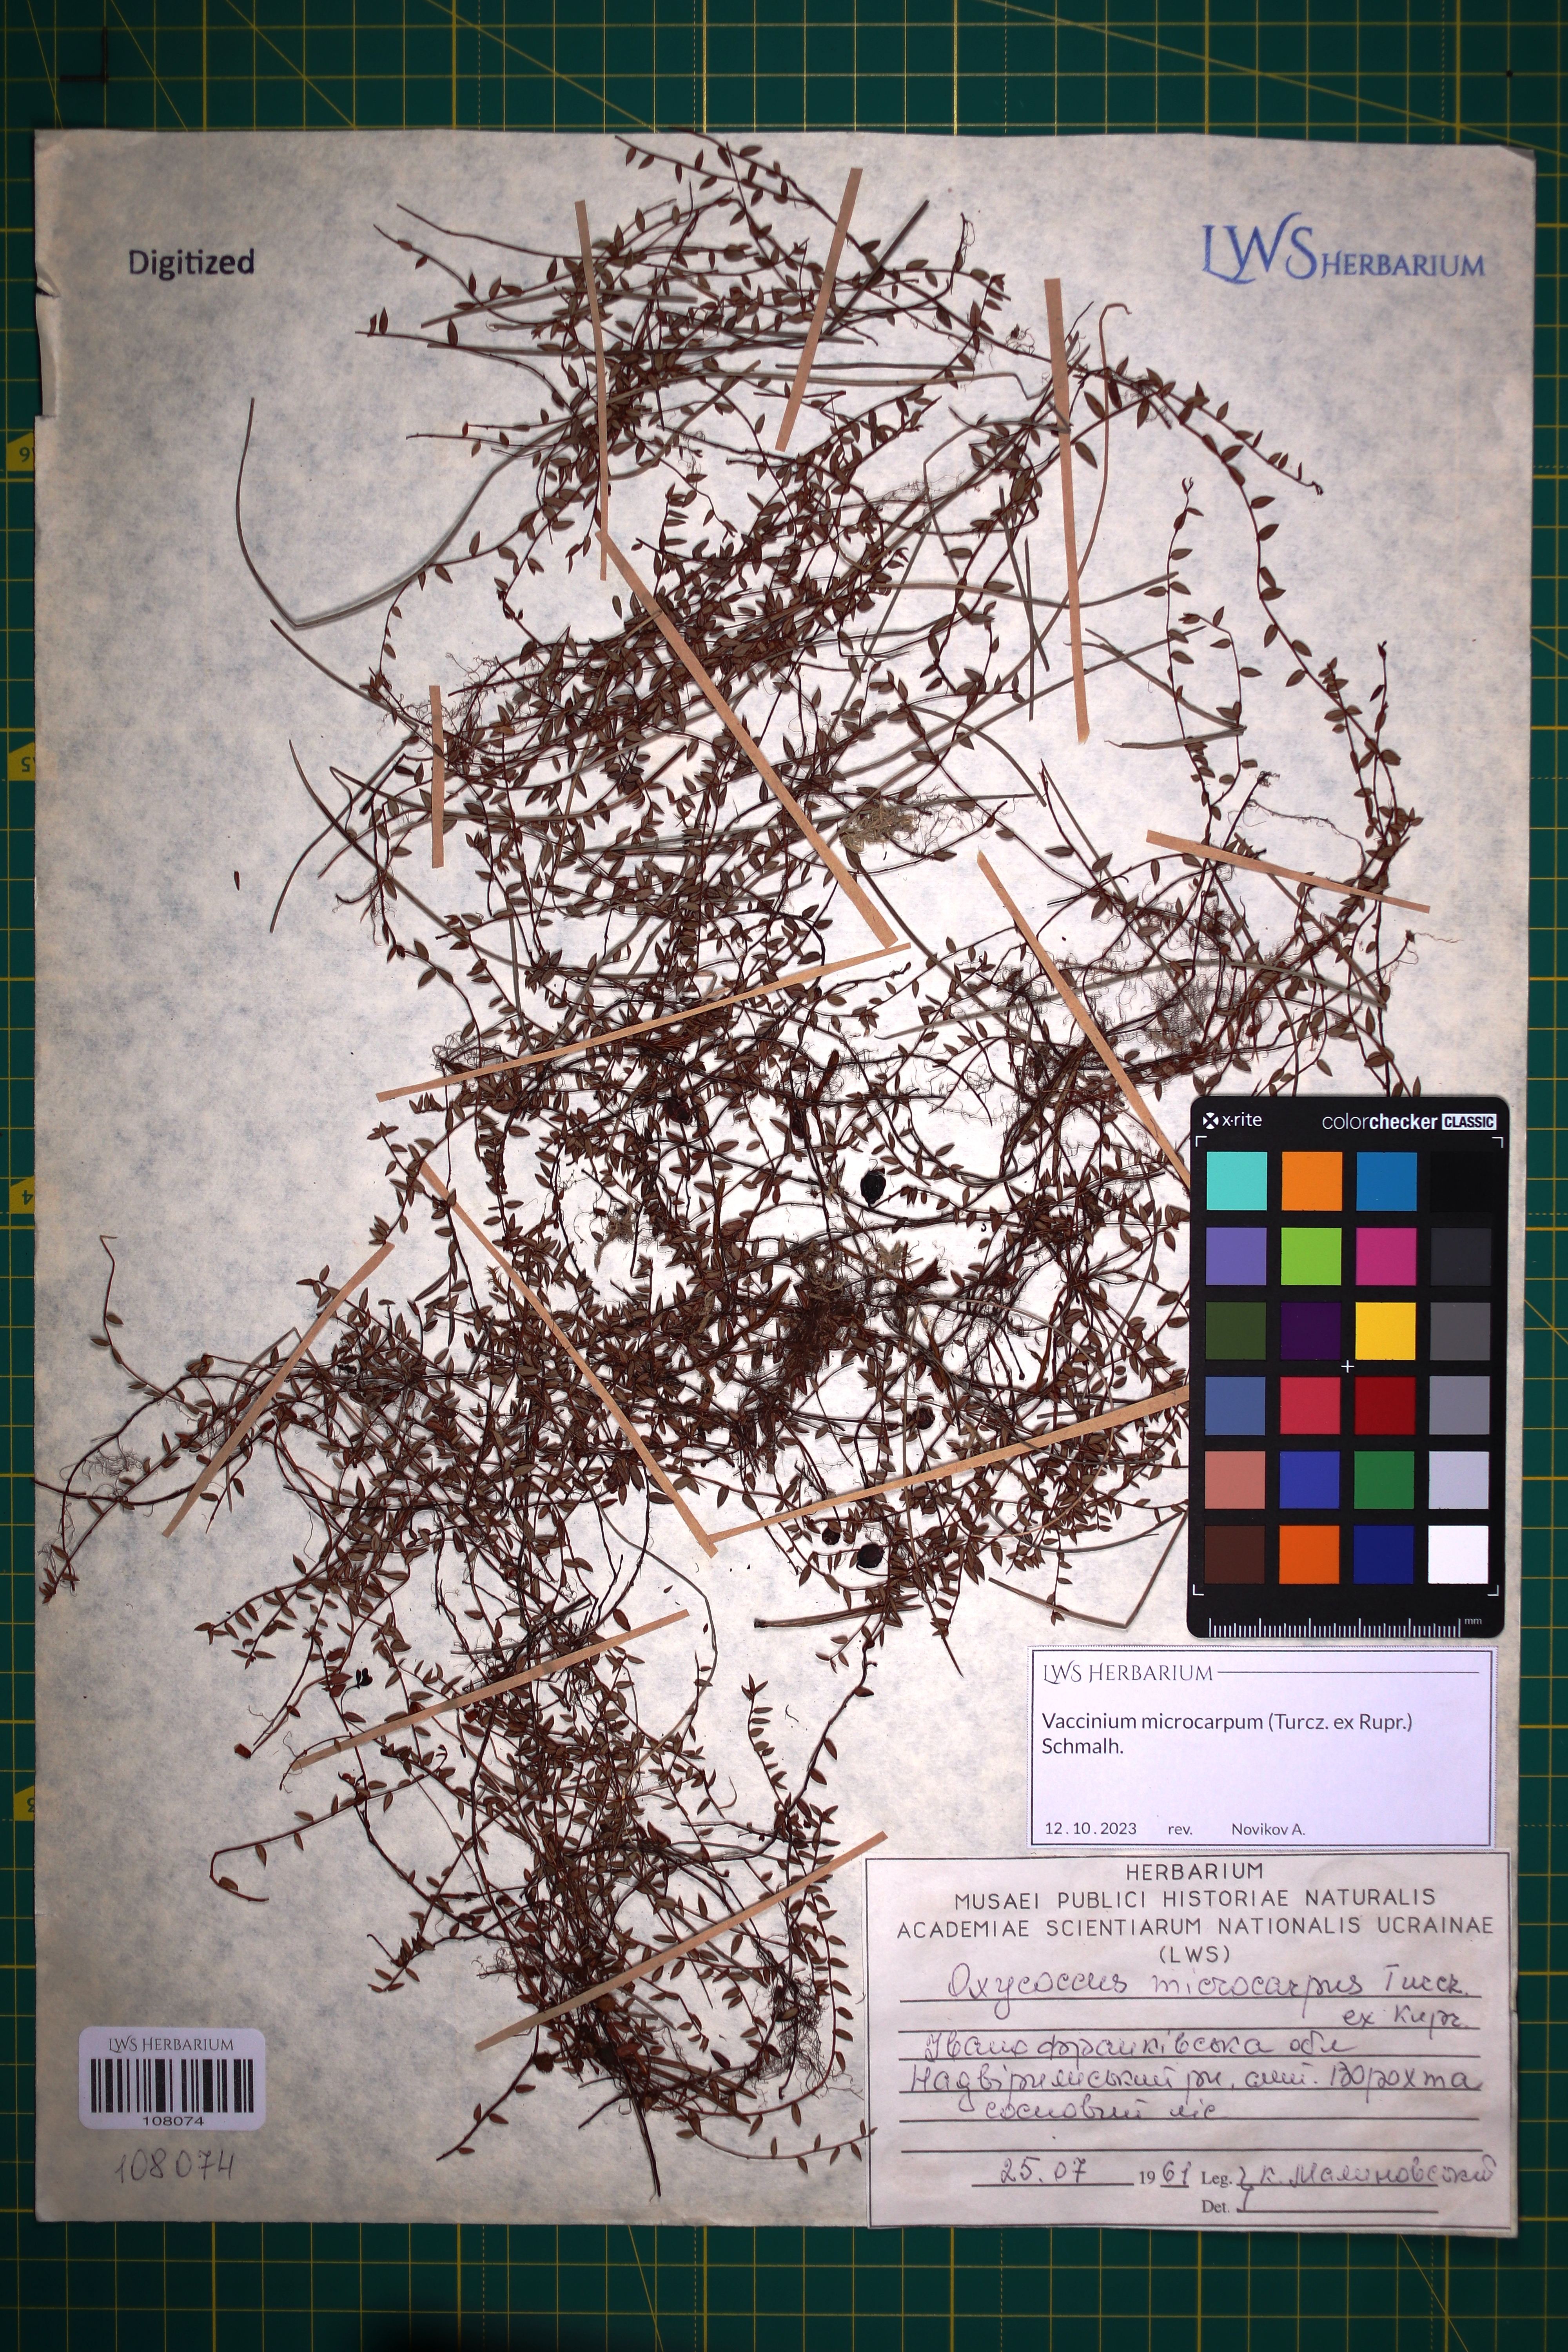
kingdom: Plantae
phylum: Tracheophyta
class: Magnoliopsida
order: Ericales
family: Ericaceae
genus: Vaccinium
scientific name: Vaccinium microcarpum
